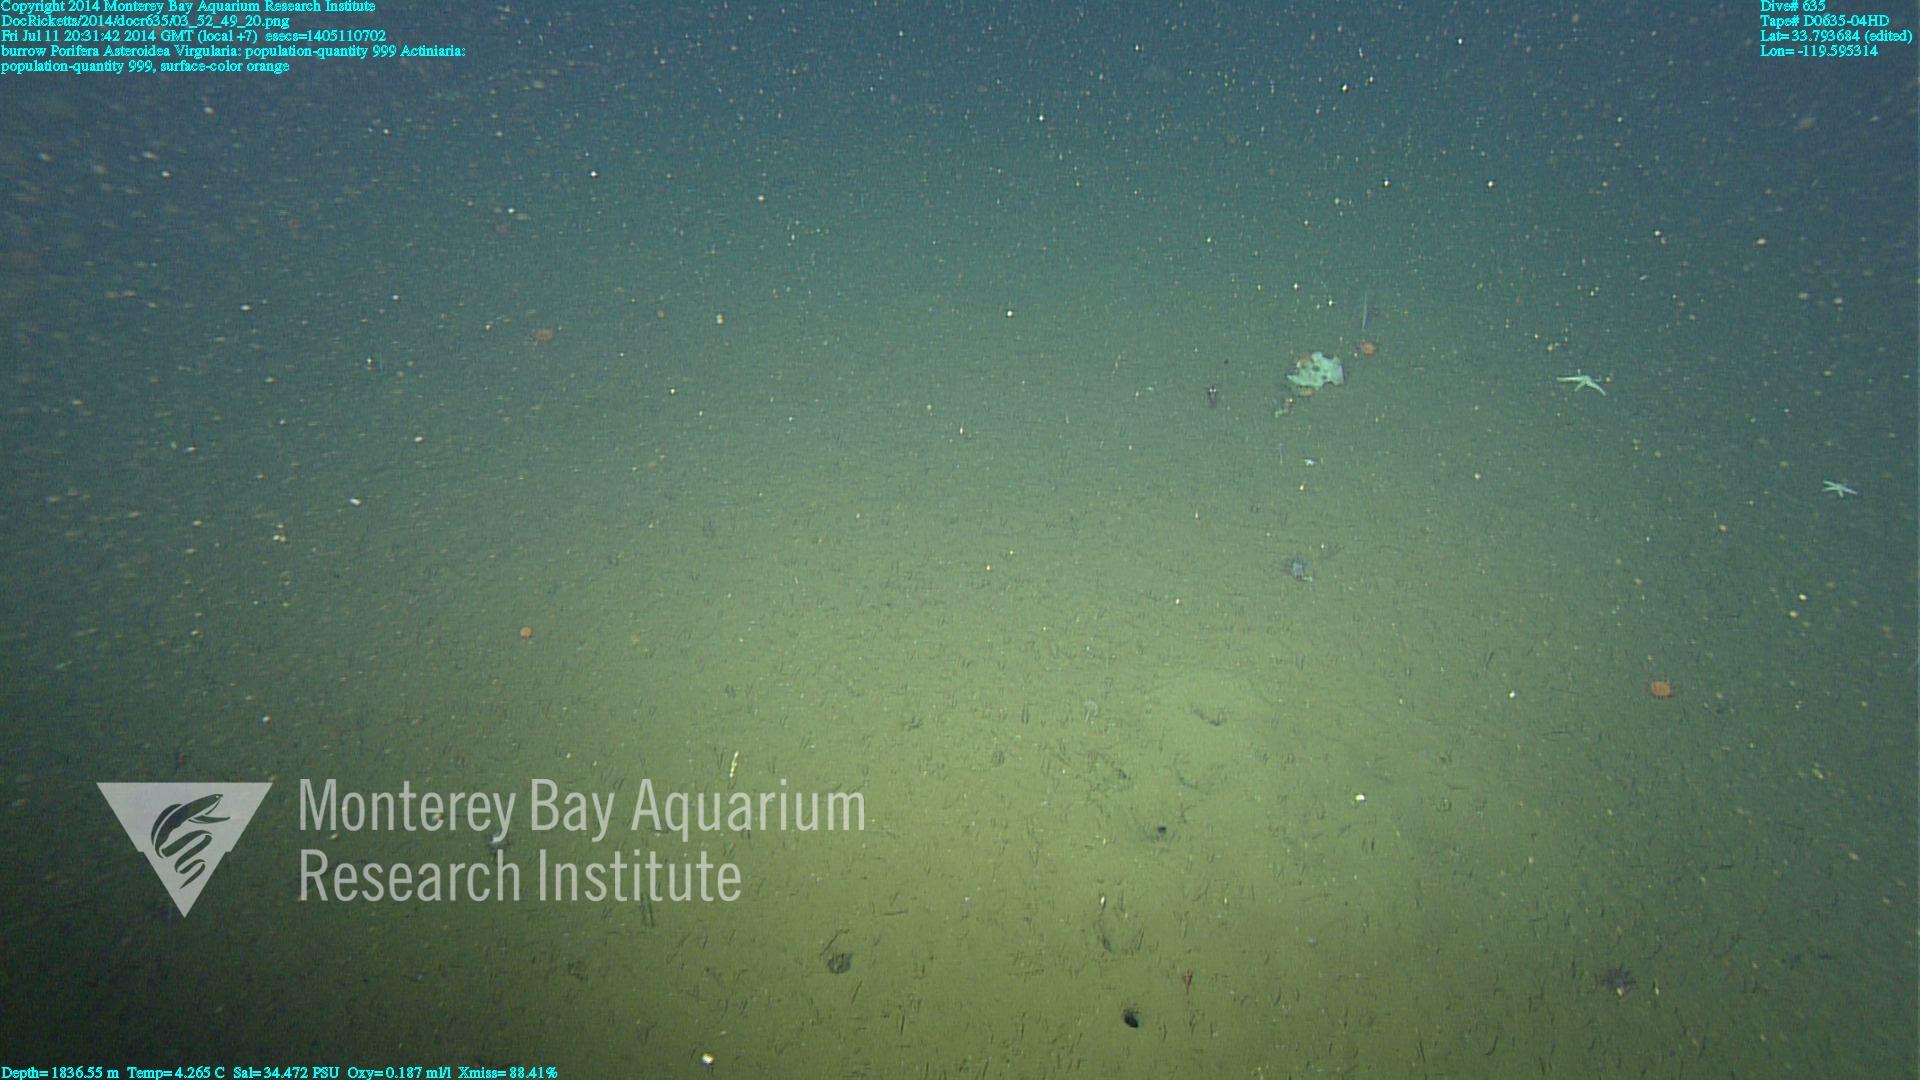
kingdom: Animalia
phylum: Cnidaria
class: Anthozoa
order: Scleralcyonacea
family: Virgulariidae
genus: Virgularia
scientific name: Virgularia
